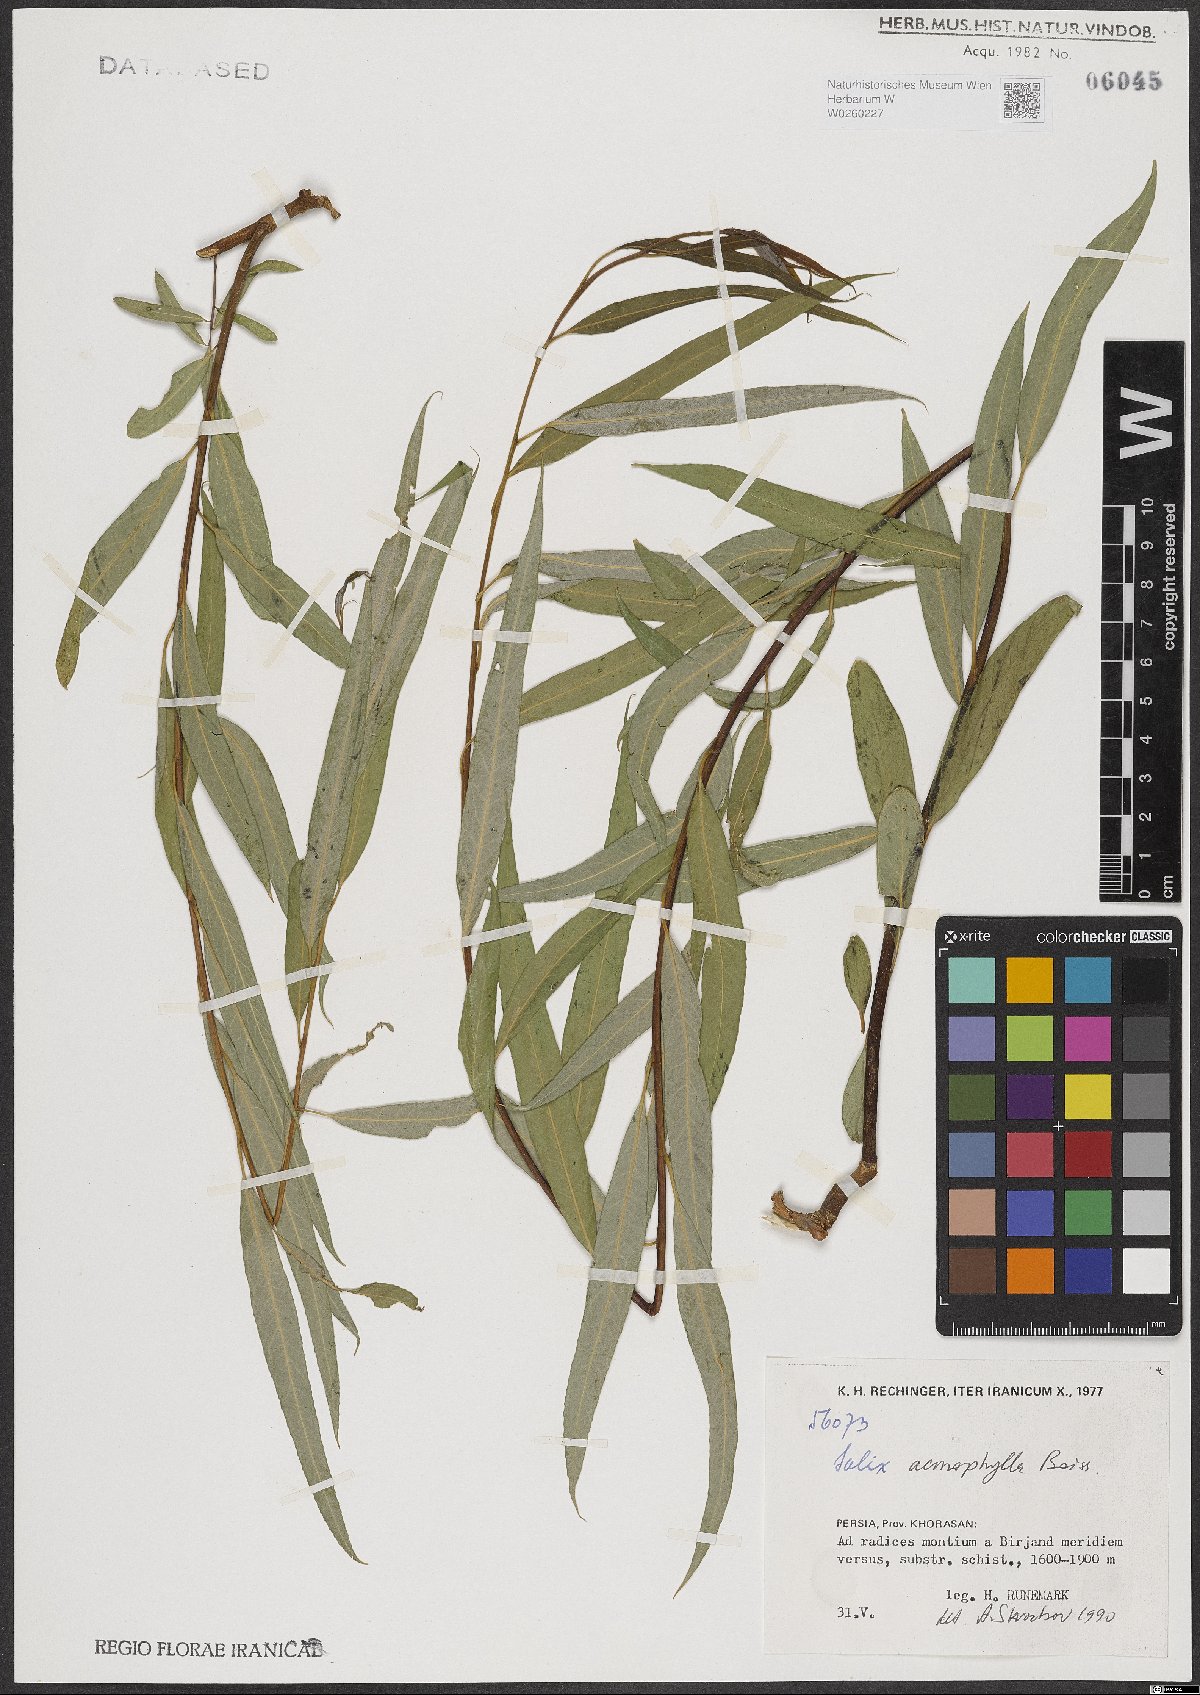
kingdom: Plantae
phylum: Tracheophyta
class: Magnoliopsida
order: Malpighiales
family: Salicaceae
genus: Salix
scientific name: Salix acmophylla
